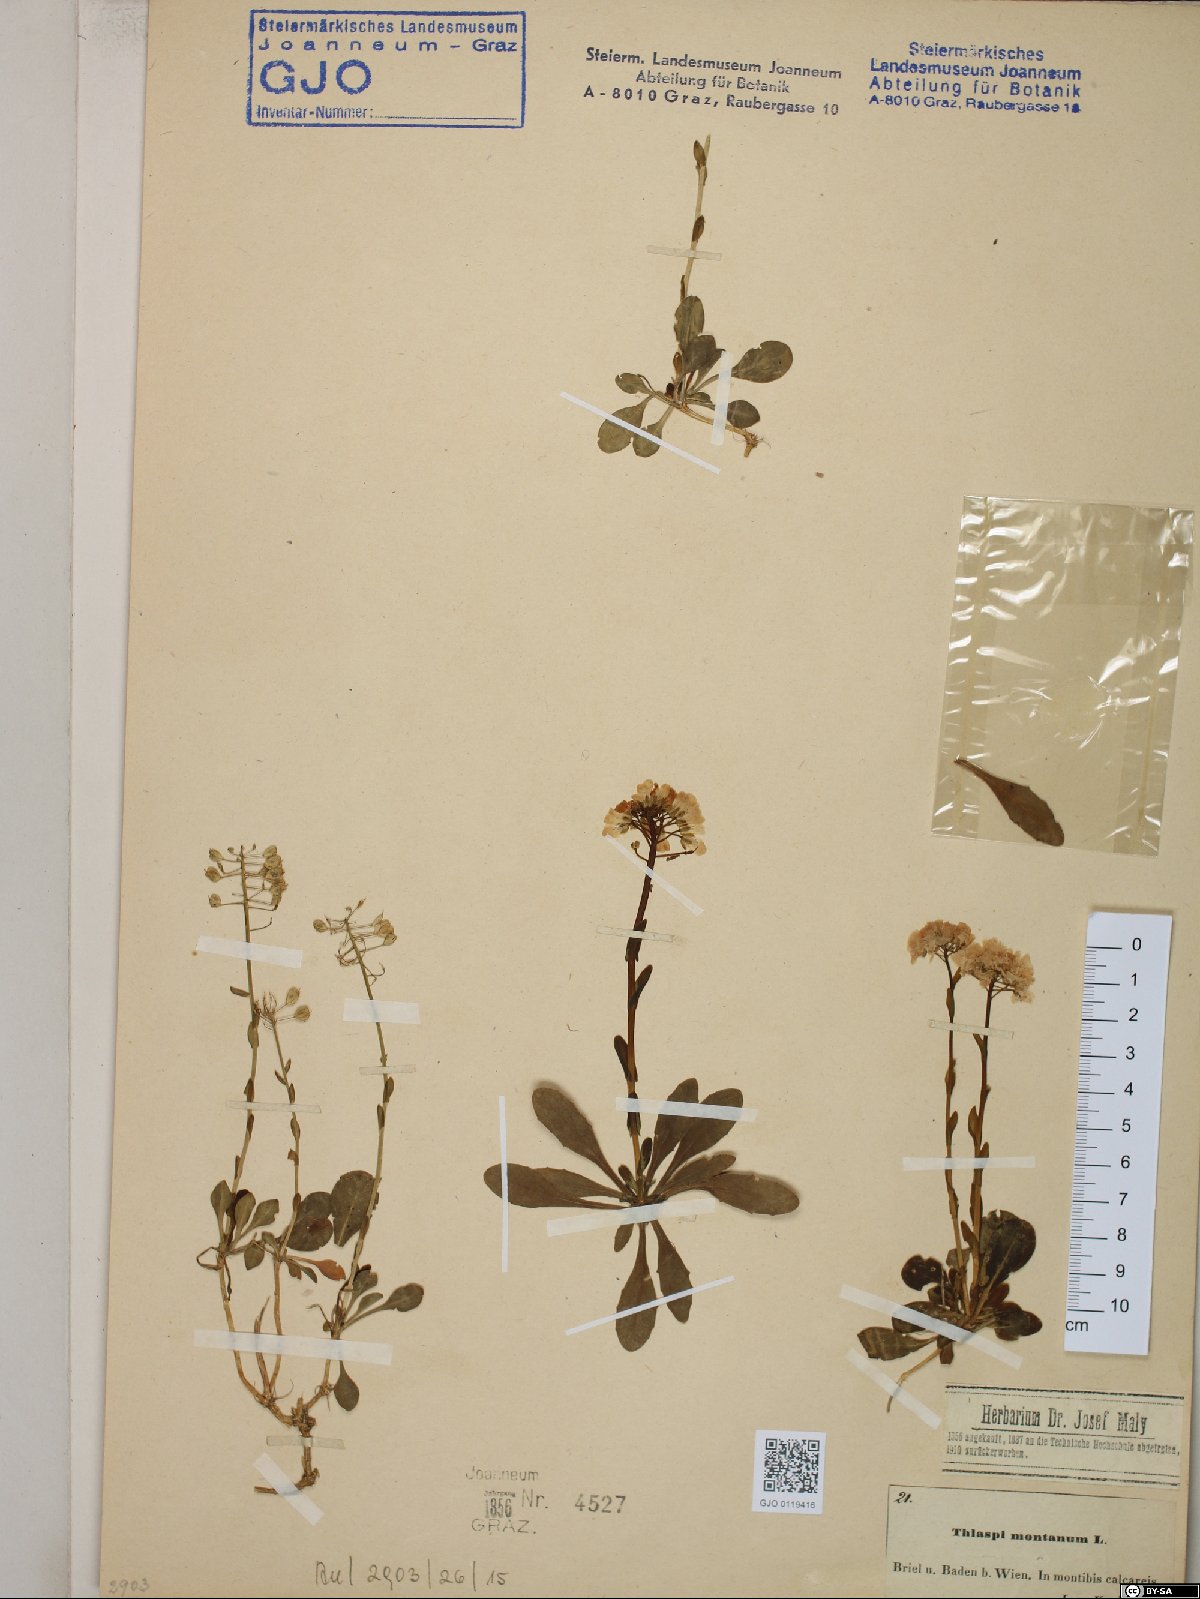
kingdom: Plantae
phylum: Tracheophyta
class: Magnoliopsida
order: Brassicales
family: Brassicaceae
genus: Noccaea
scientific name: Noccaea montana
